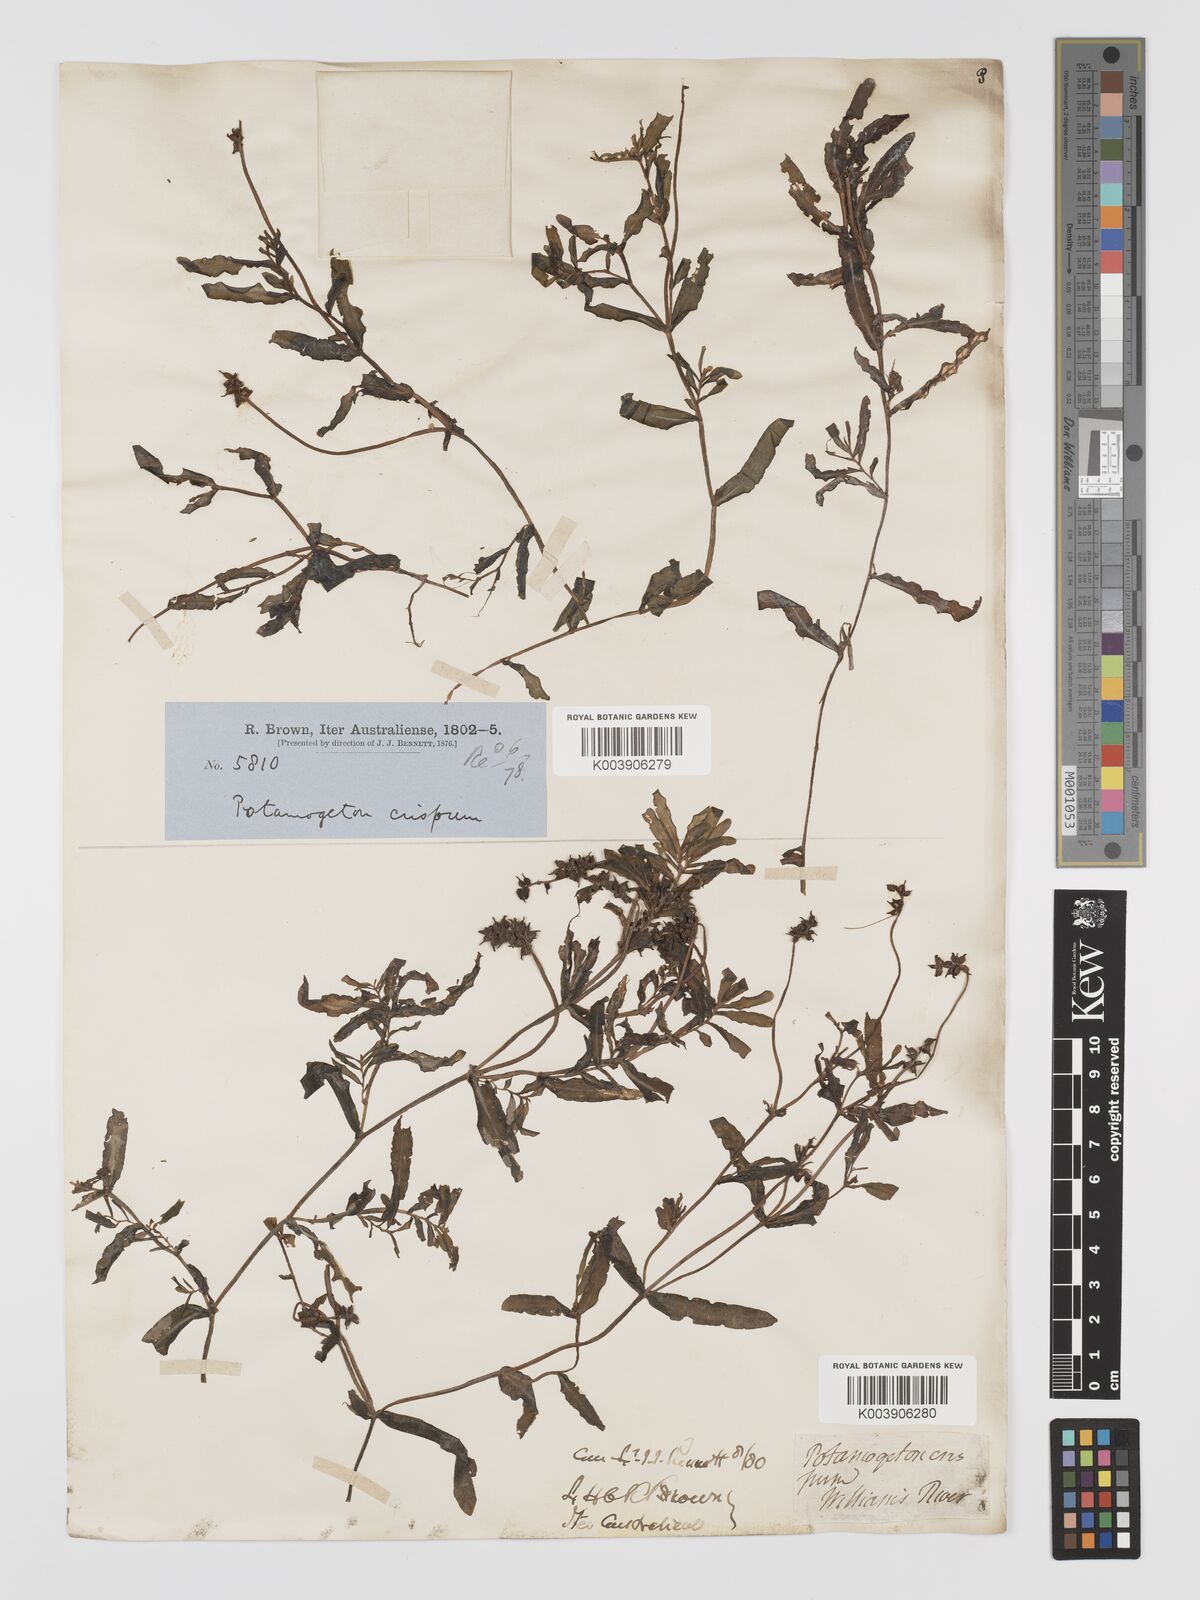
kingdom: Plantae
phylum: Tracheophyta
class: Liliopsida
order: Alismatales
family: Potamogetonaceae
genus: Potamogeton
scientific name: Potamogeton crispus
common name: Curled pondweed
